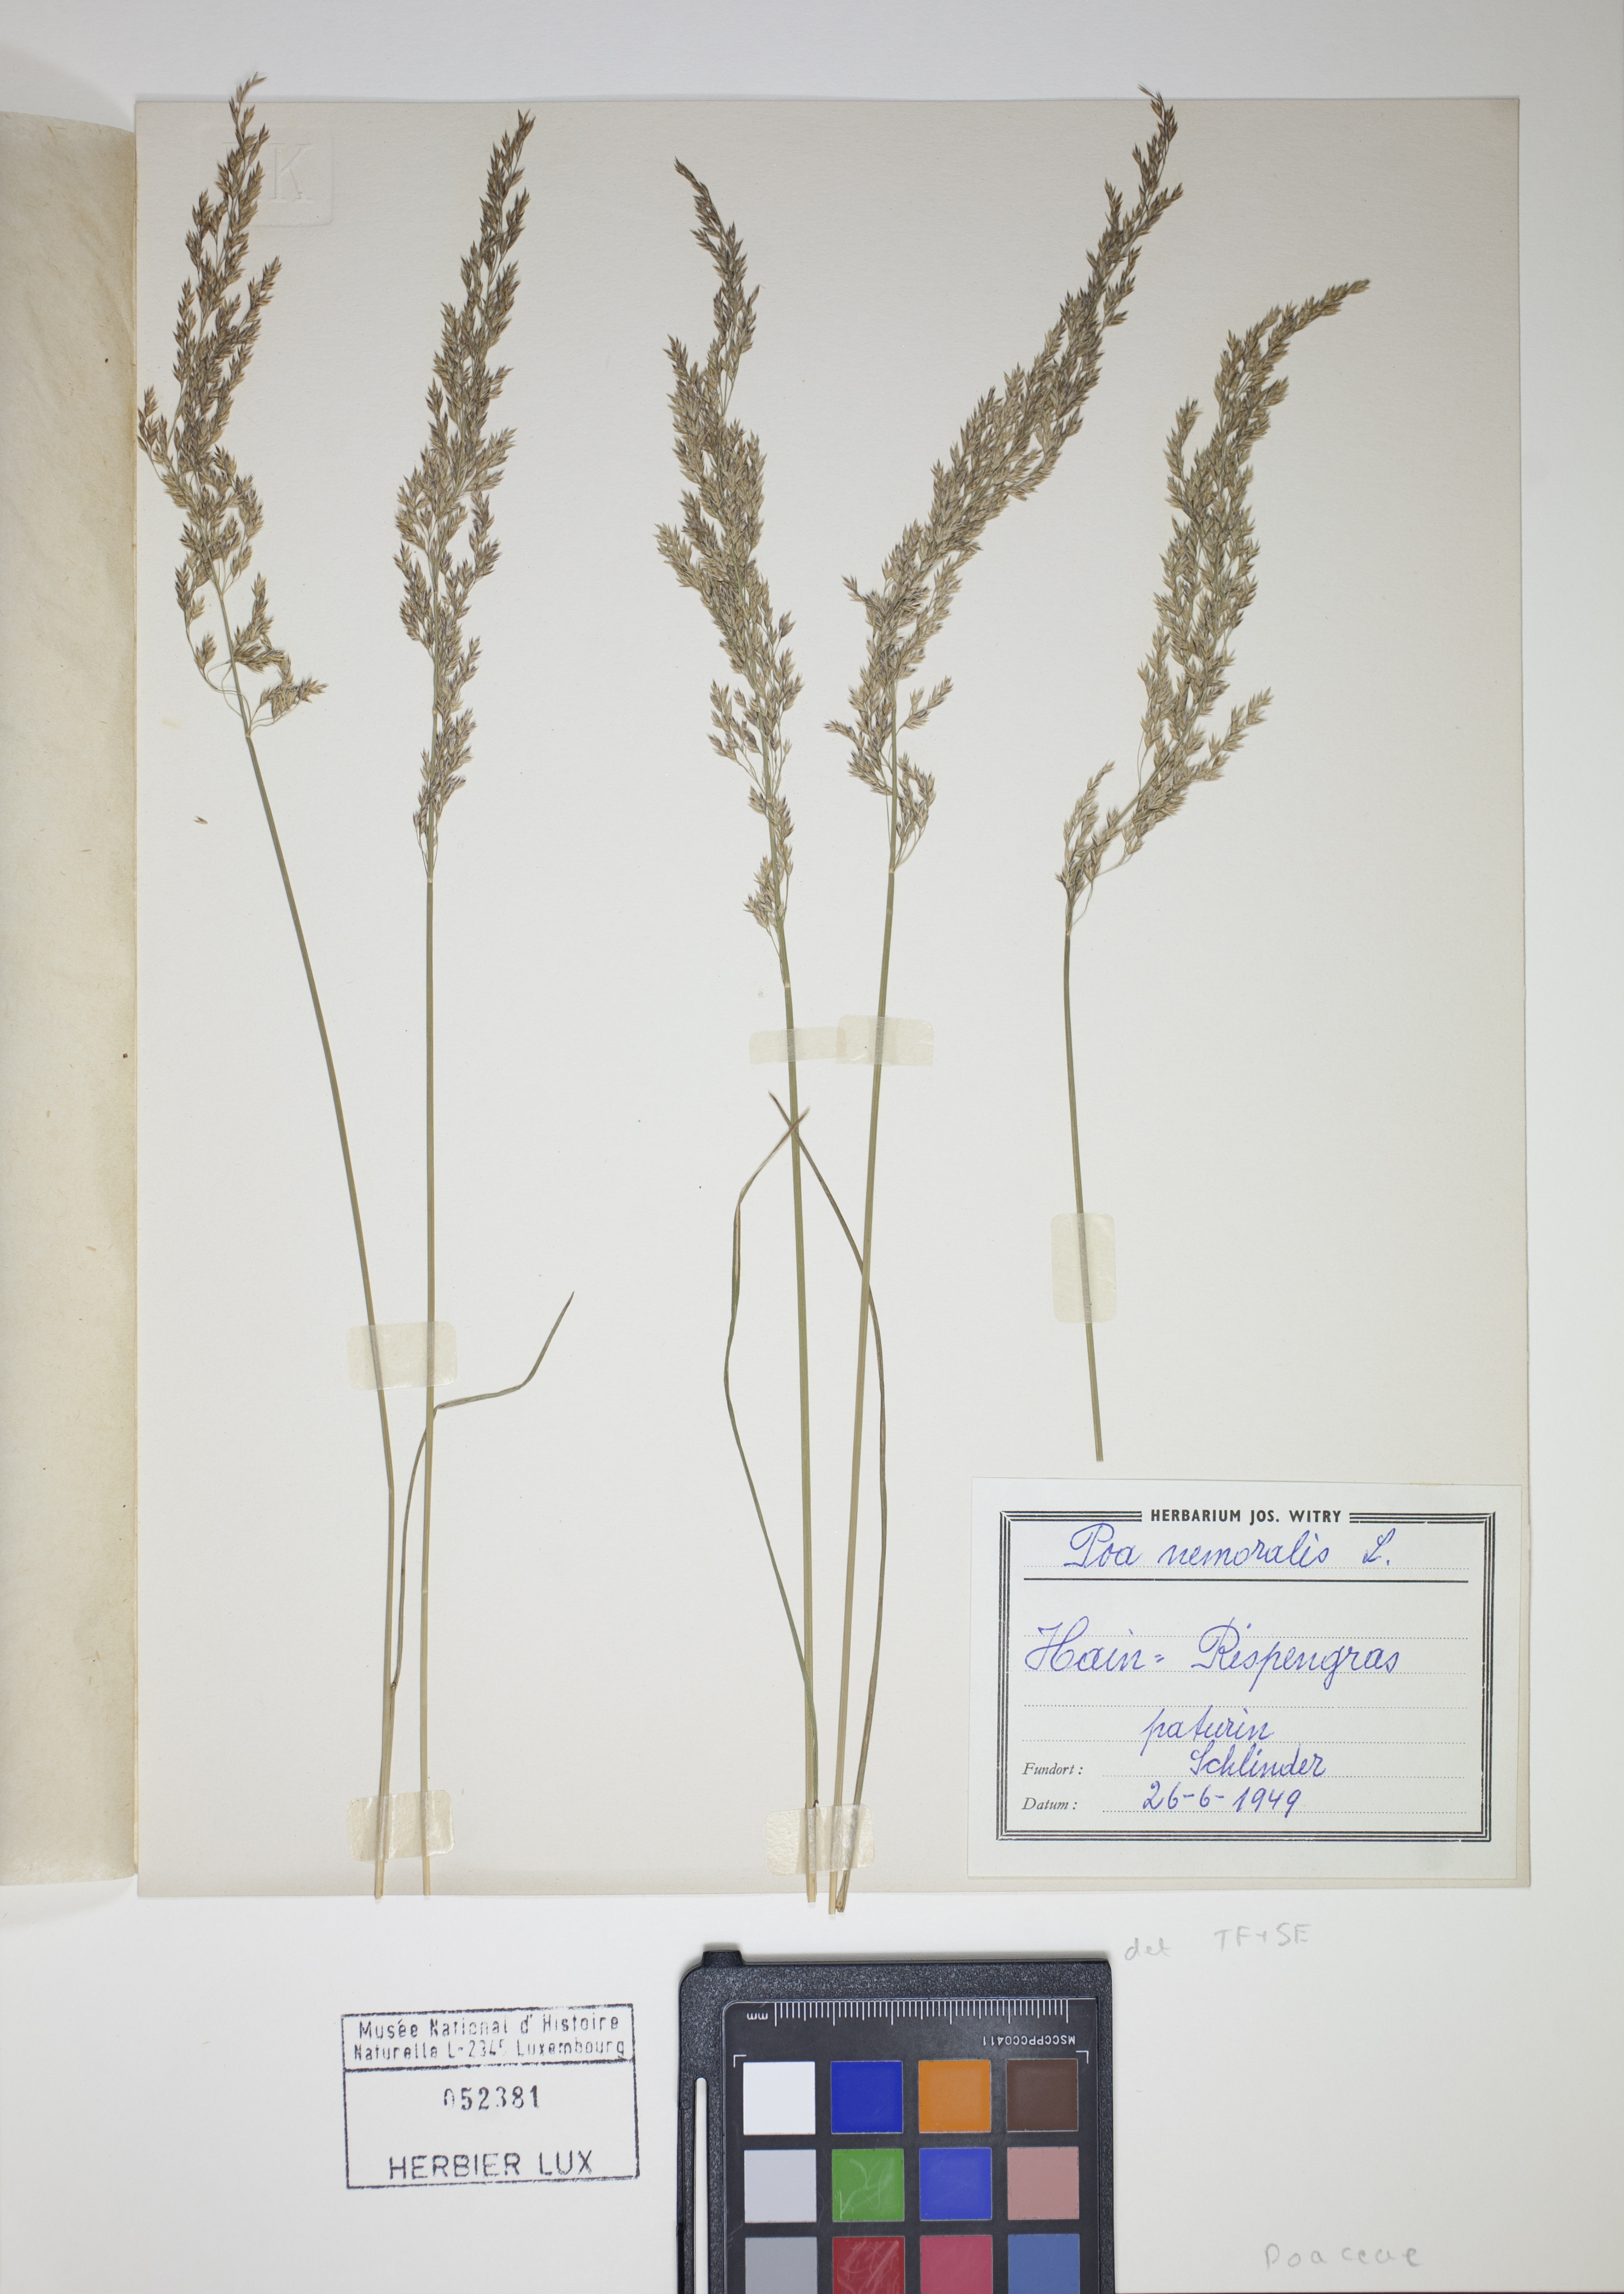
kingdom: Plantae
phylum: Tracheophyta
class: Liliopsida
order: Poales
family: Poaceae
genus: Poa
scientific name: Poa nemoralis
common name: Wood bluegrass
